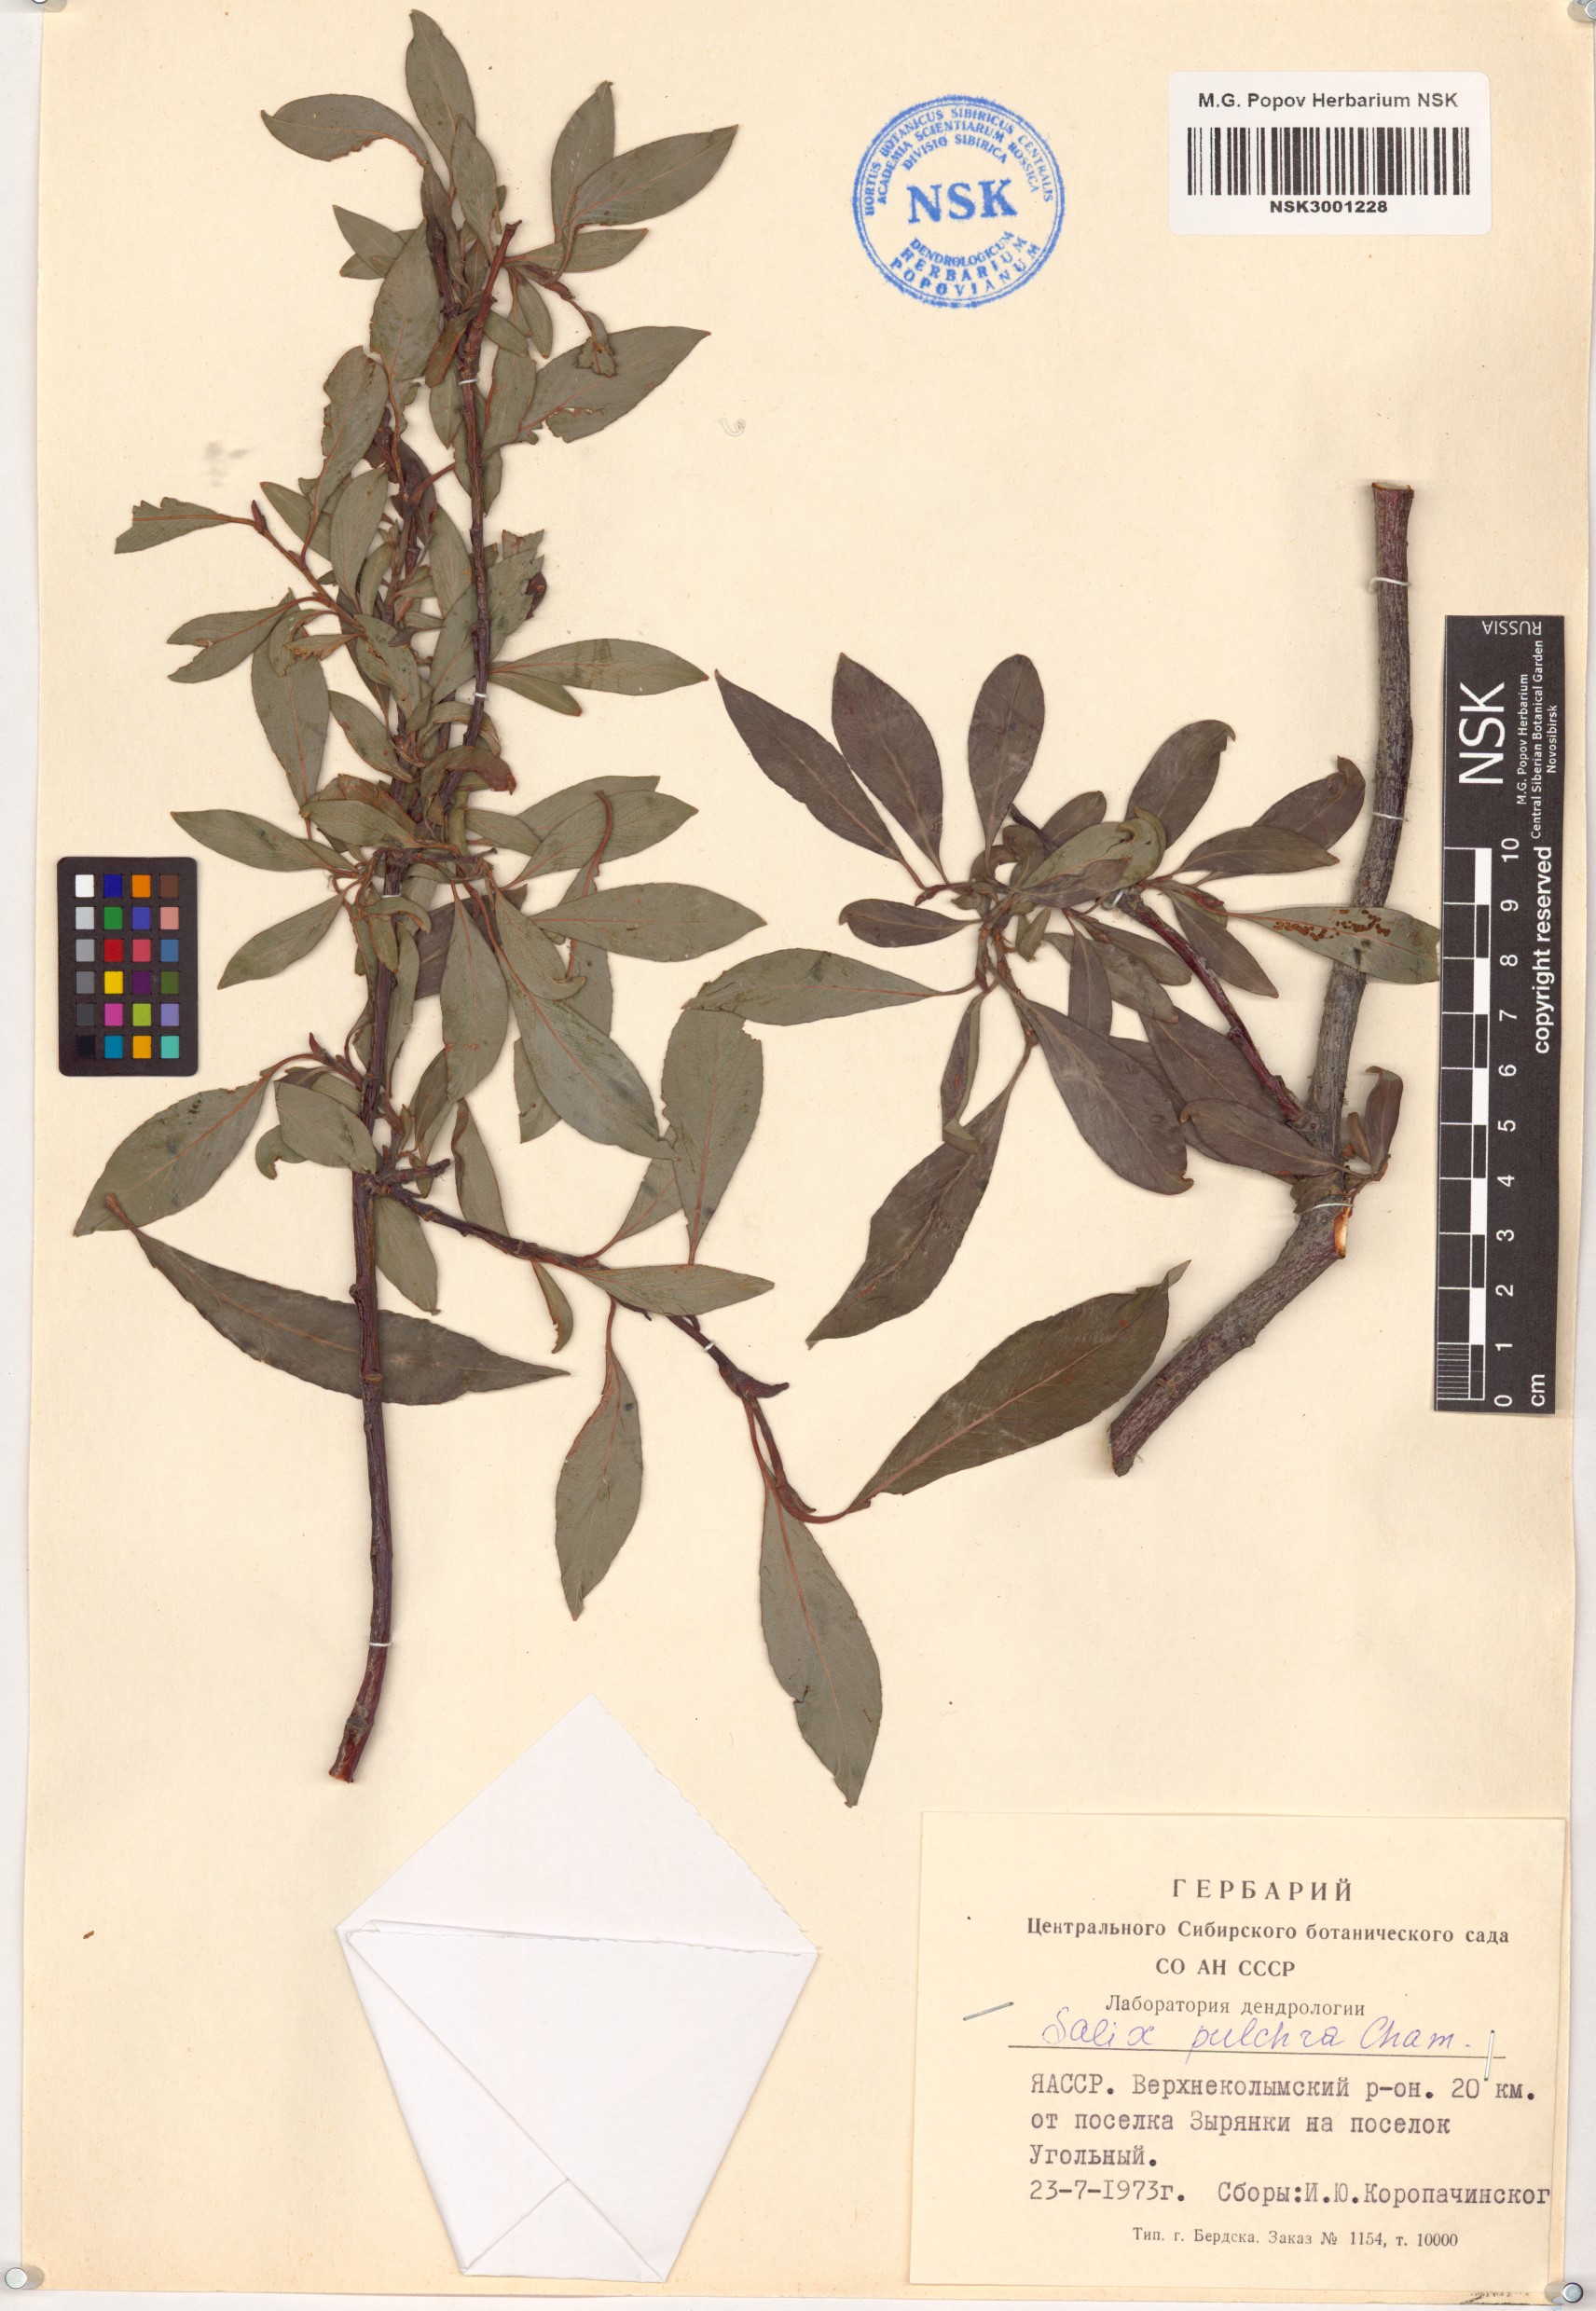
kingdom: Plantae
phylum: Tracheophyta
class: Magnoliopsida
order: Malpighiales
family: Salicaceae
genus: Salix
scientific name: Salix pulchra
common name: Diamond-leaved willow
